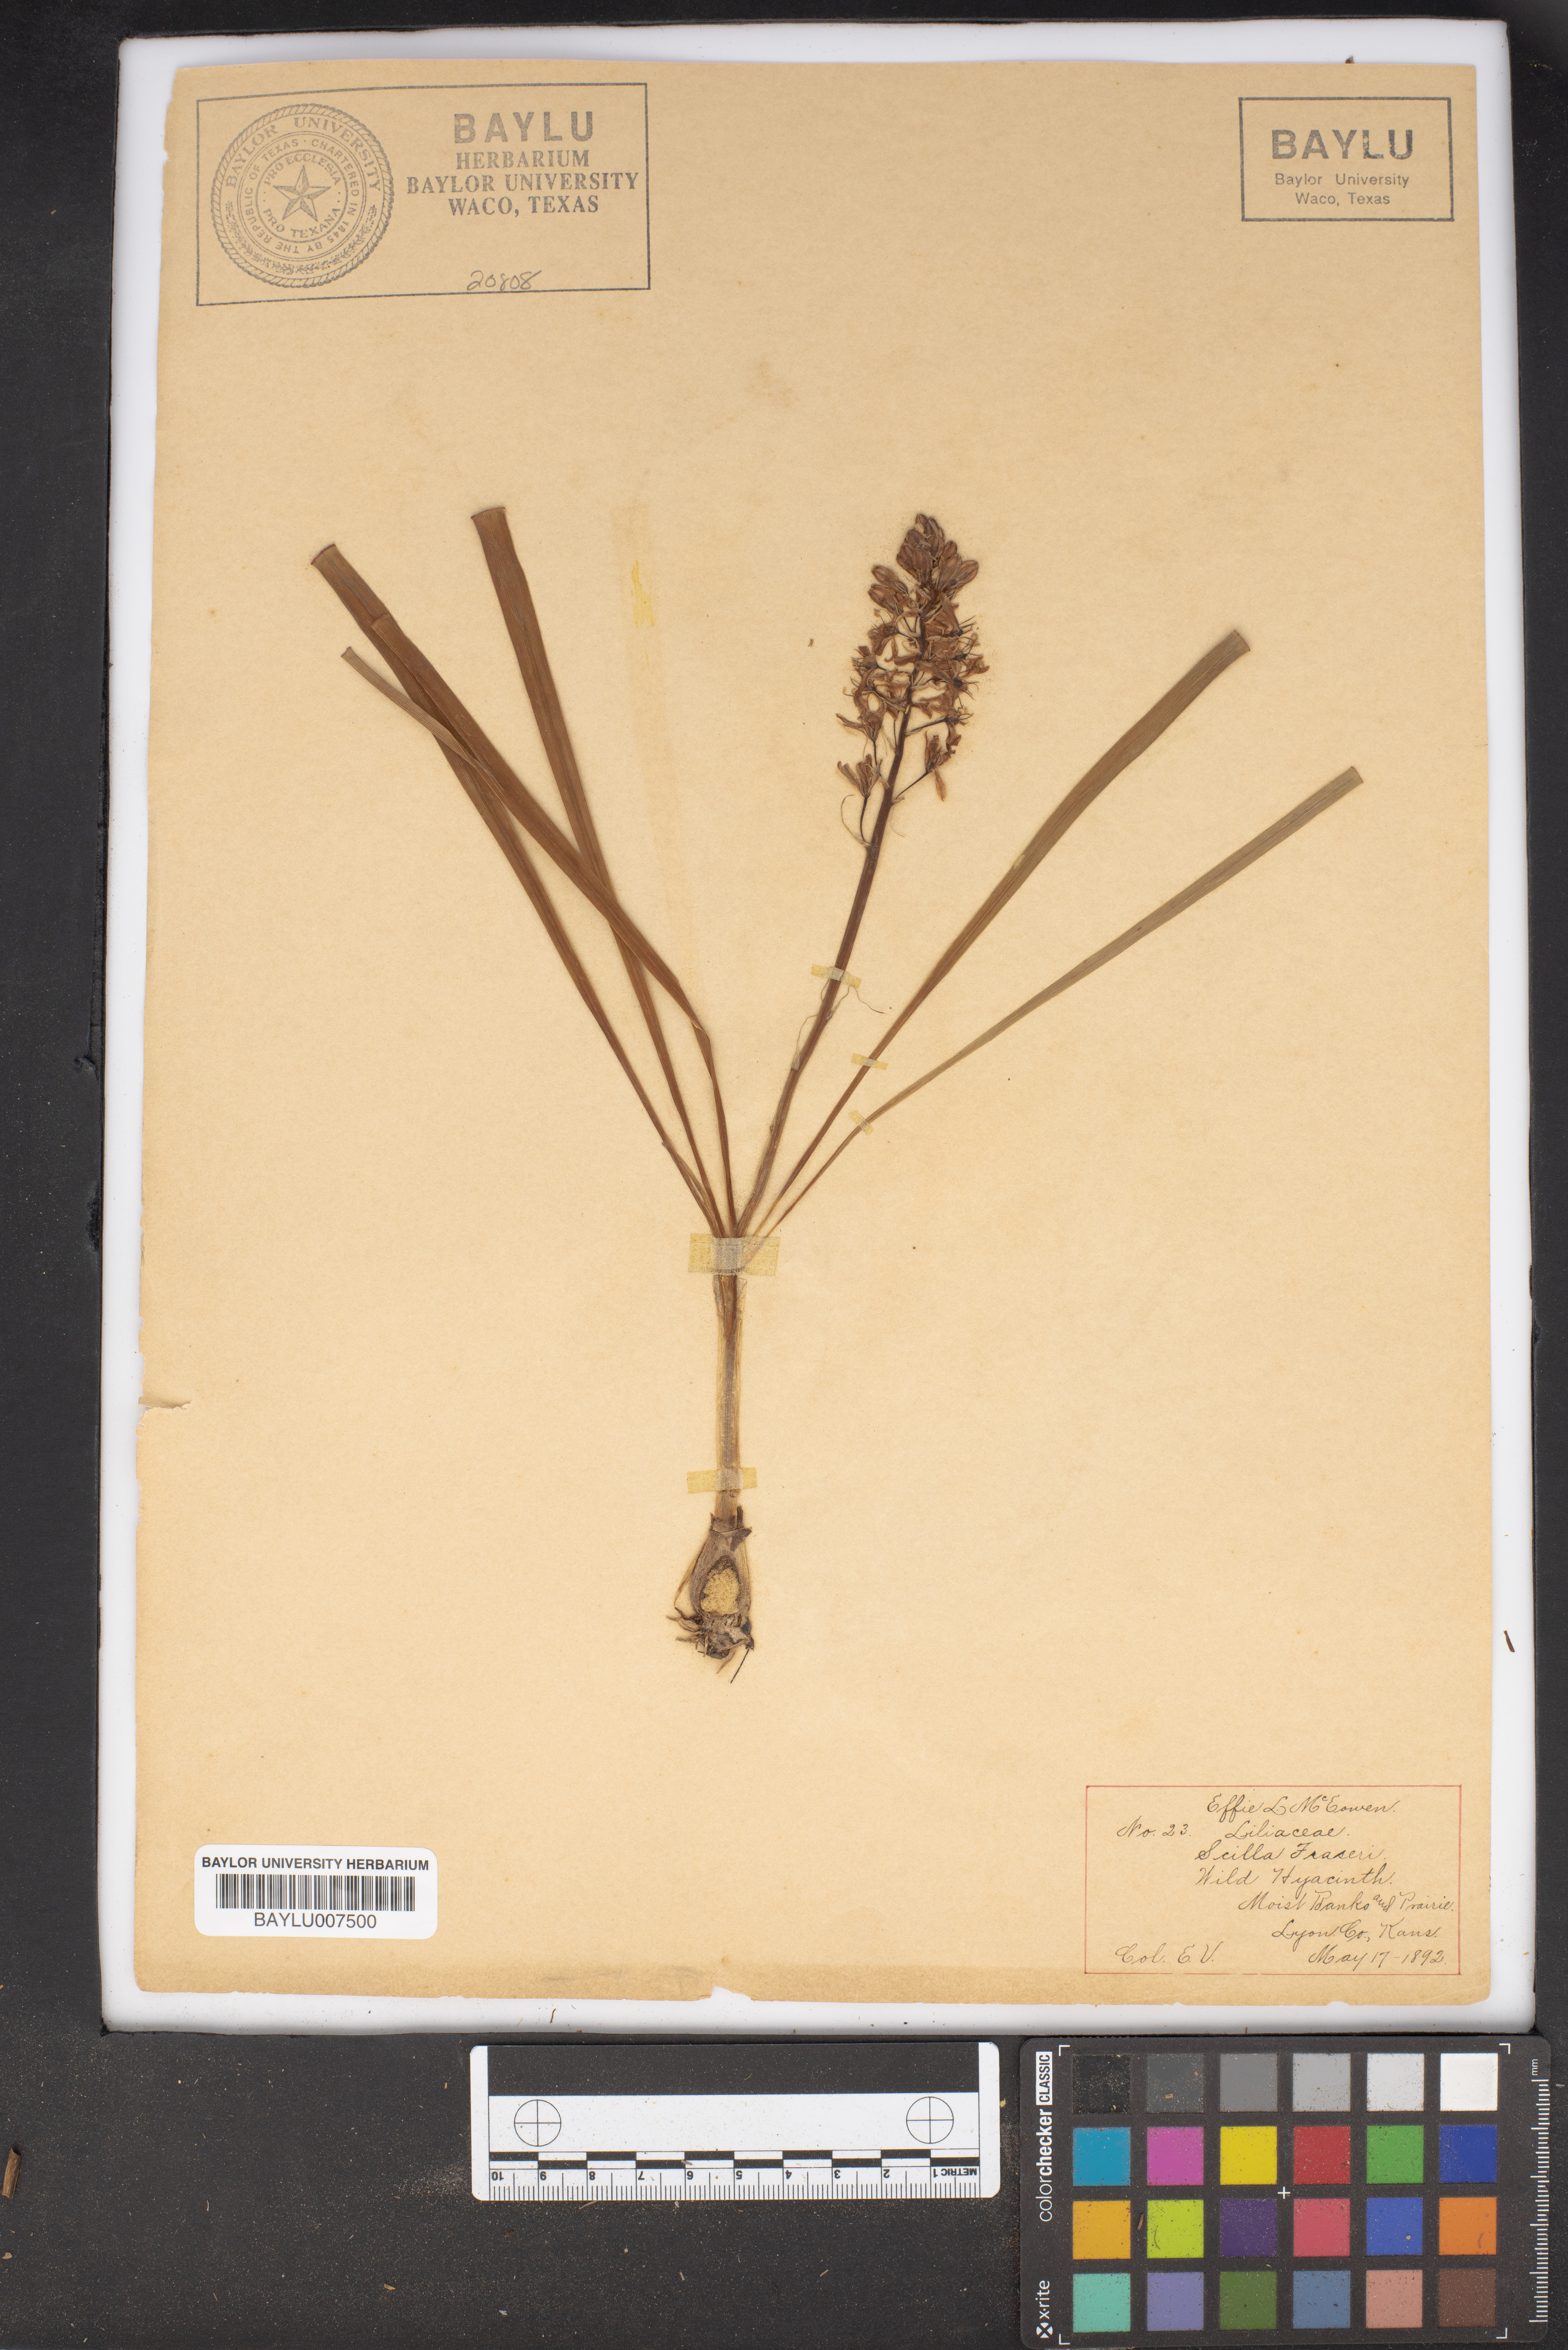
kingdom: Plantae
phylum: Tracheophyta
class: Liliopsida
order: Asparagales
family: Asparagaceae
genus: Camassia
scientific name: Camassia scilloides
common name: Wild hyacinth
